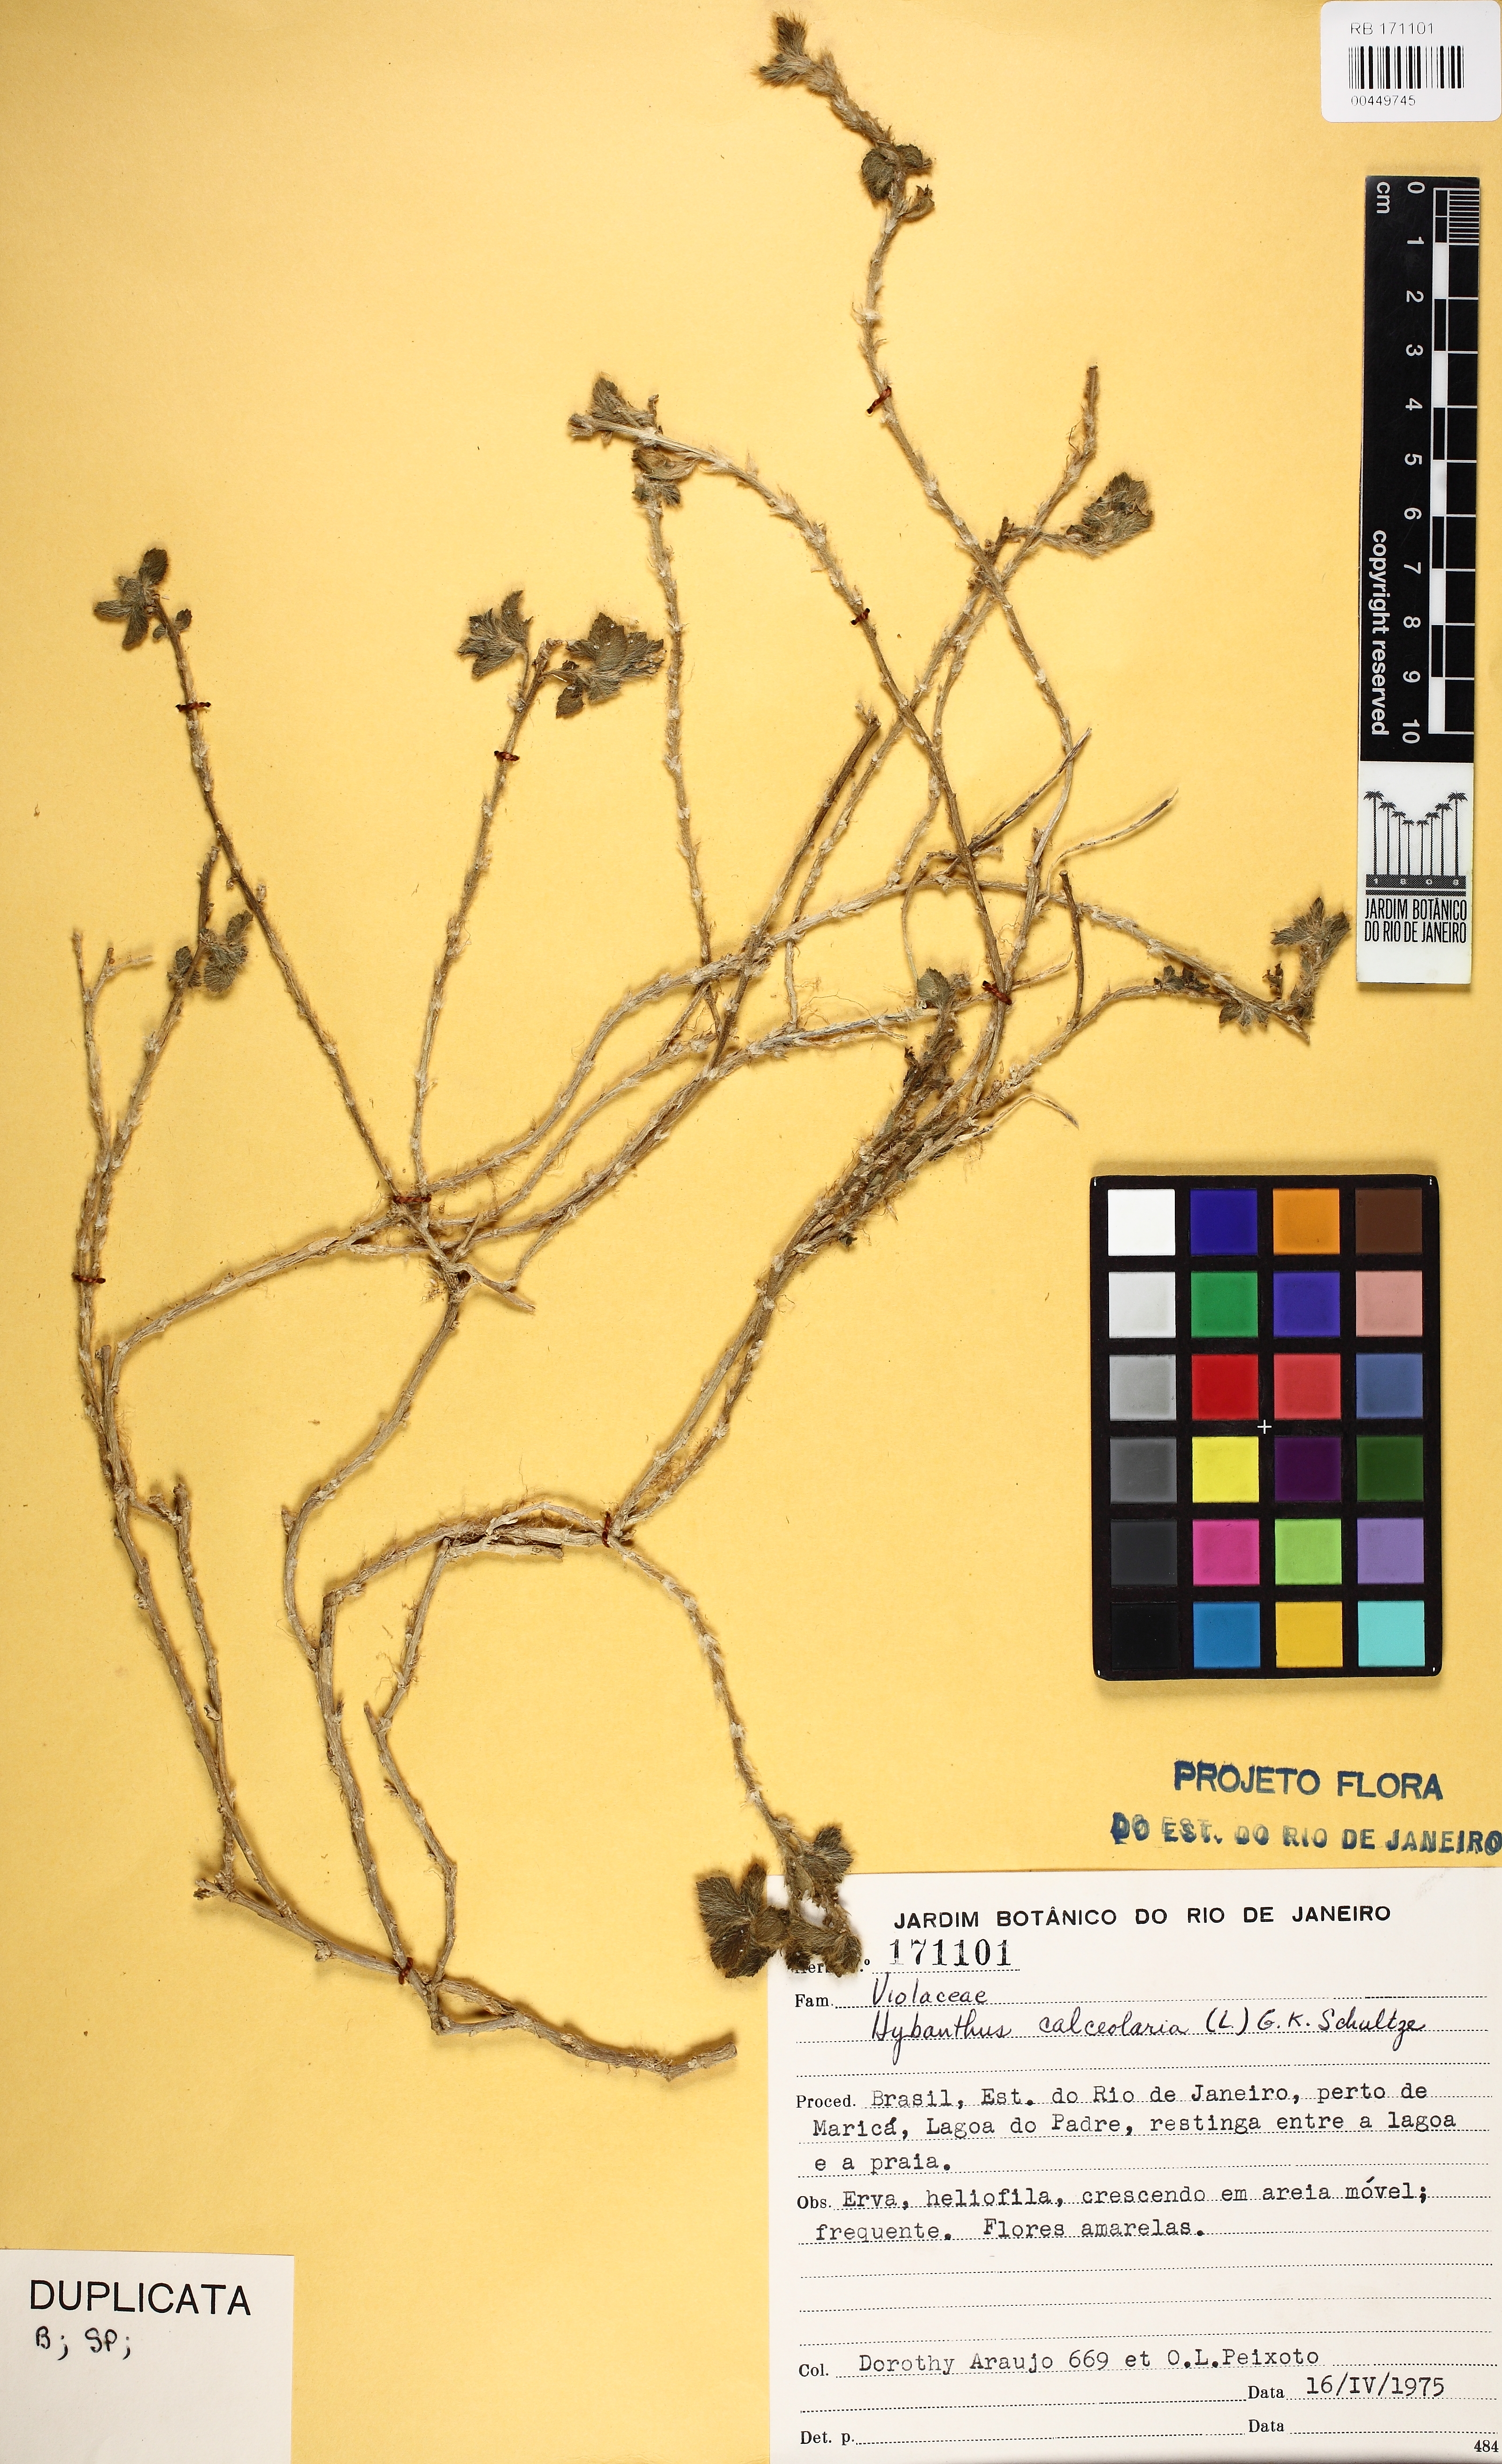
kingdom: Plantae
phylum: Tracheophyta
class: Magnoliopsida
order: Malpighiales
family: Violaceae
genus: Pombalia
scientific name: Pombalia calceolaria
